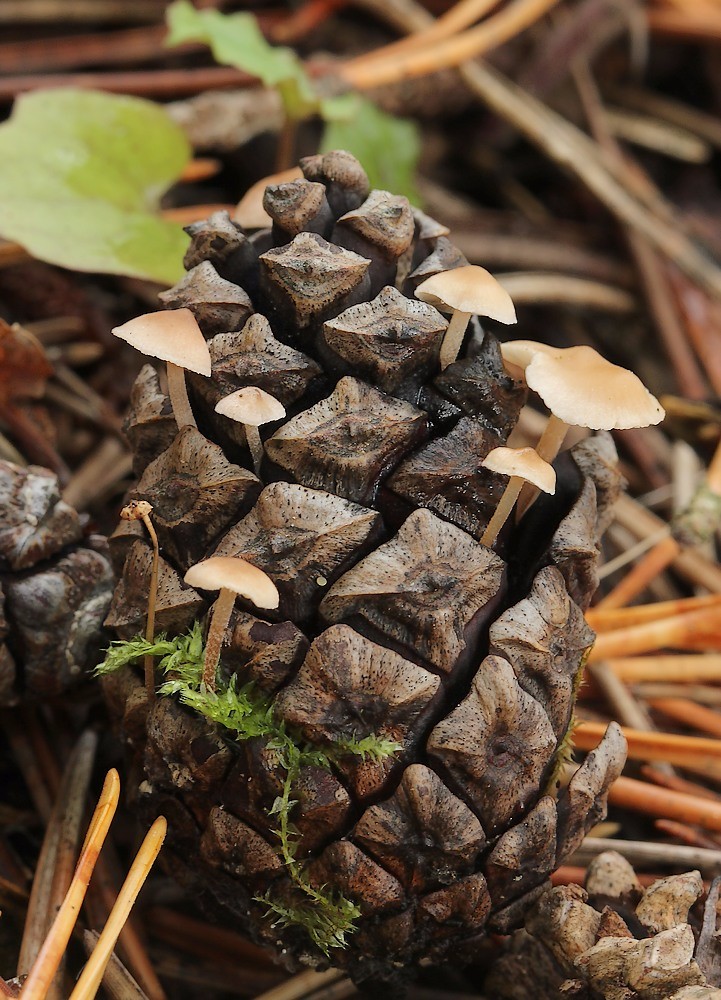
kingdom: Fungi
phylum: Basidiomycota
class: Agaricomycetes
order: Agaricales
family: Marasmiaceae
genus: Baeospora
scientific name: Baeospora myosura
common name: koglebruskhat
